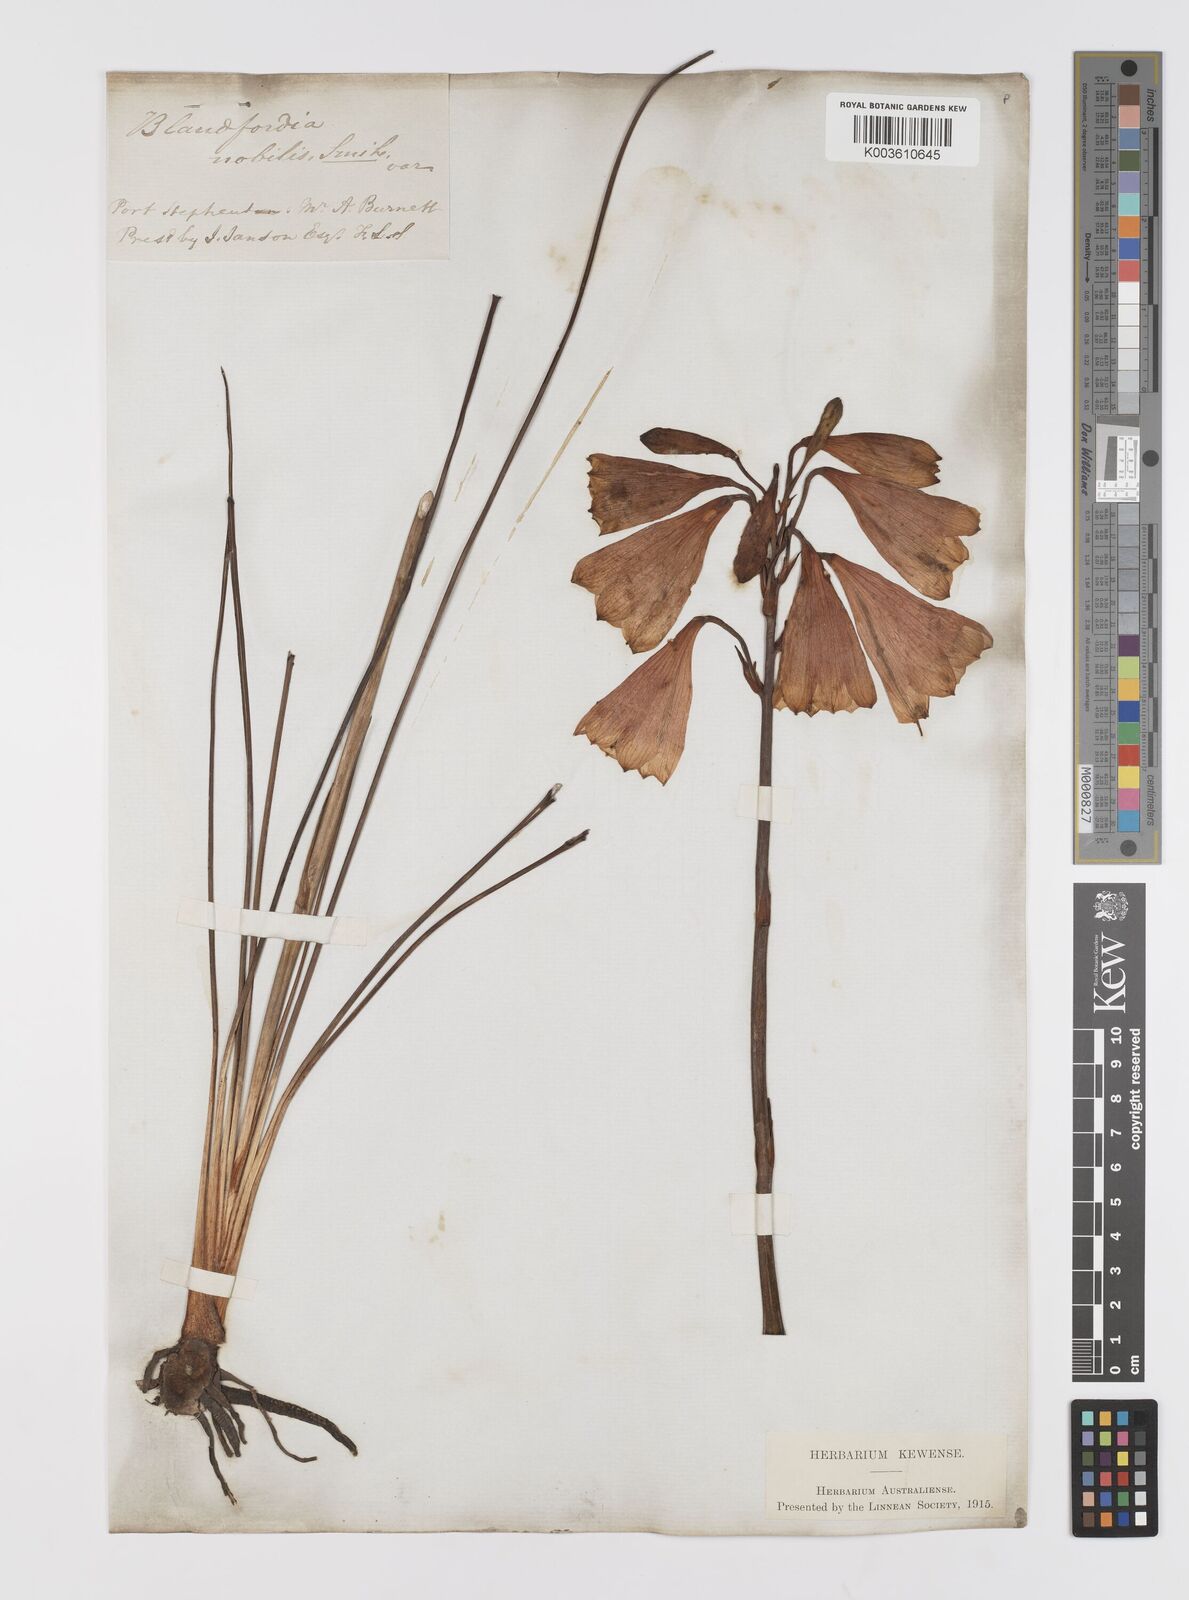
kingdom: Plantae
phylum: Tracheophyta
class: Liliopsida
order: Asparagales
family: Blandfordiaceae
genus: Blandfordia
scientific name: Blandfordia punicea
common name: Tasmanian christmas-bell
